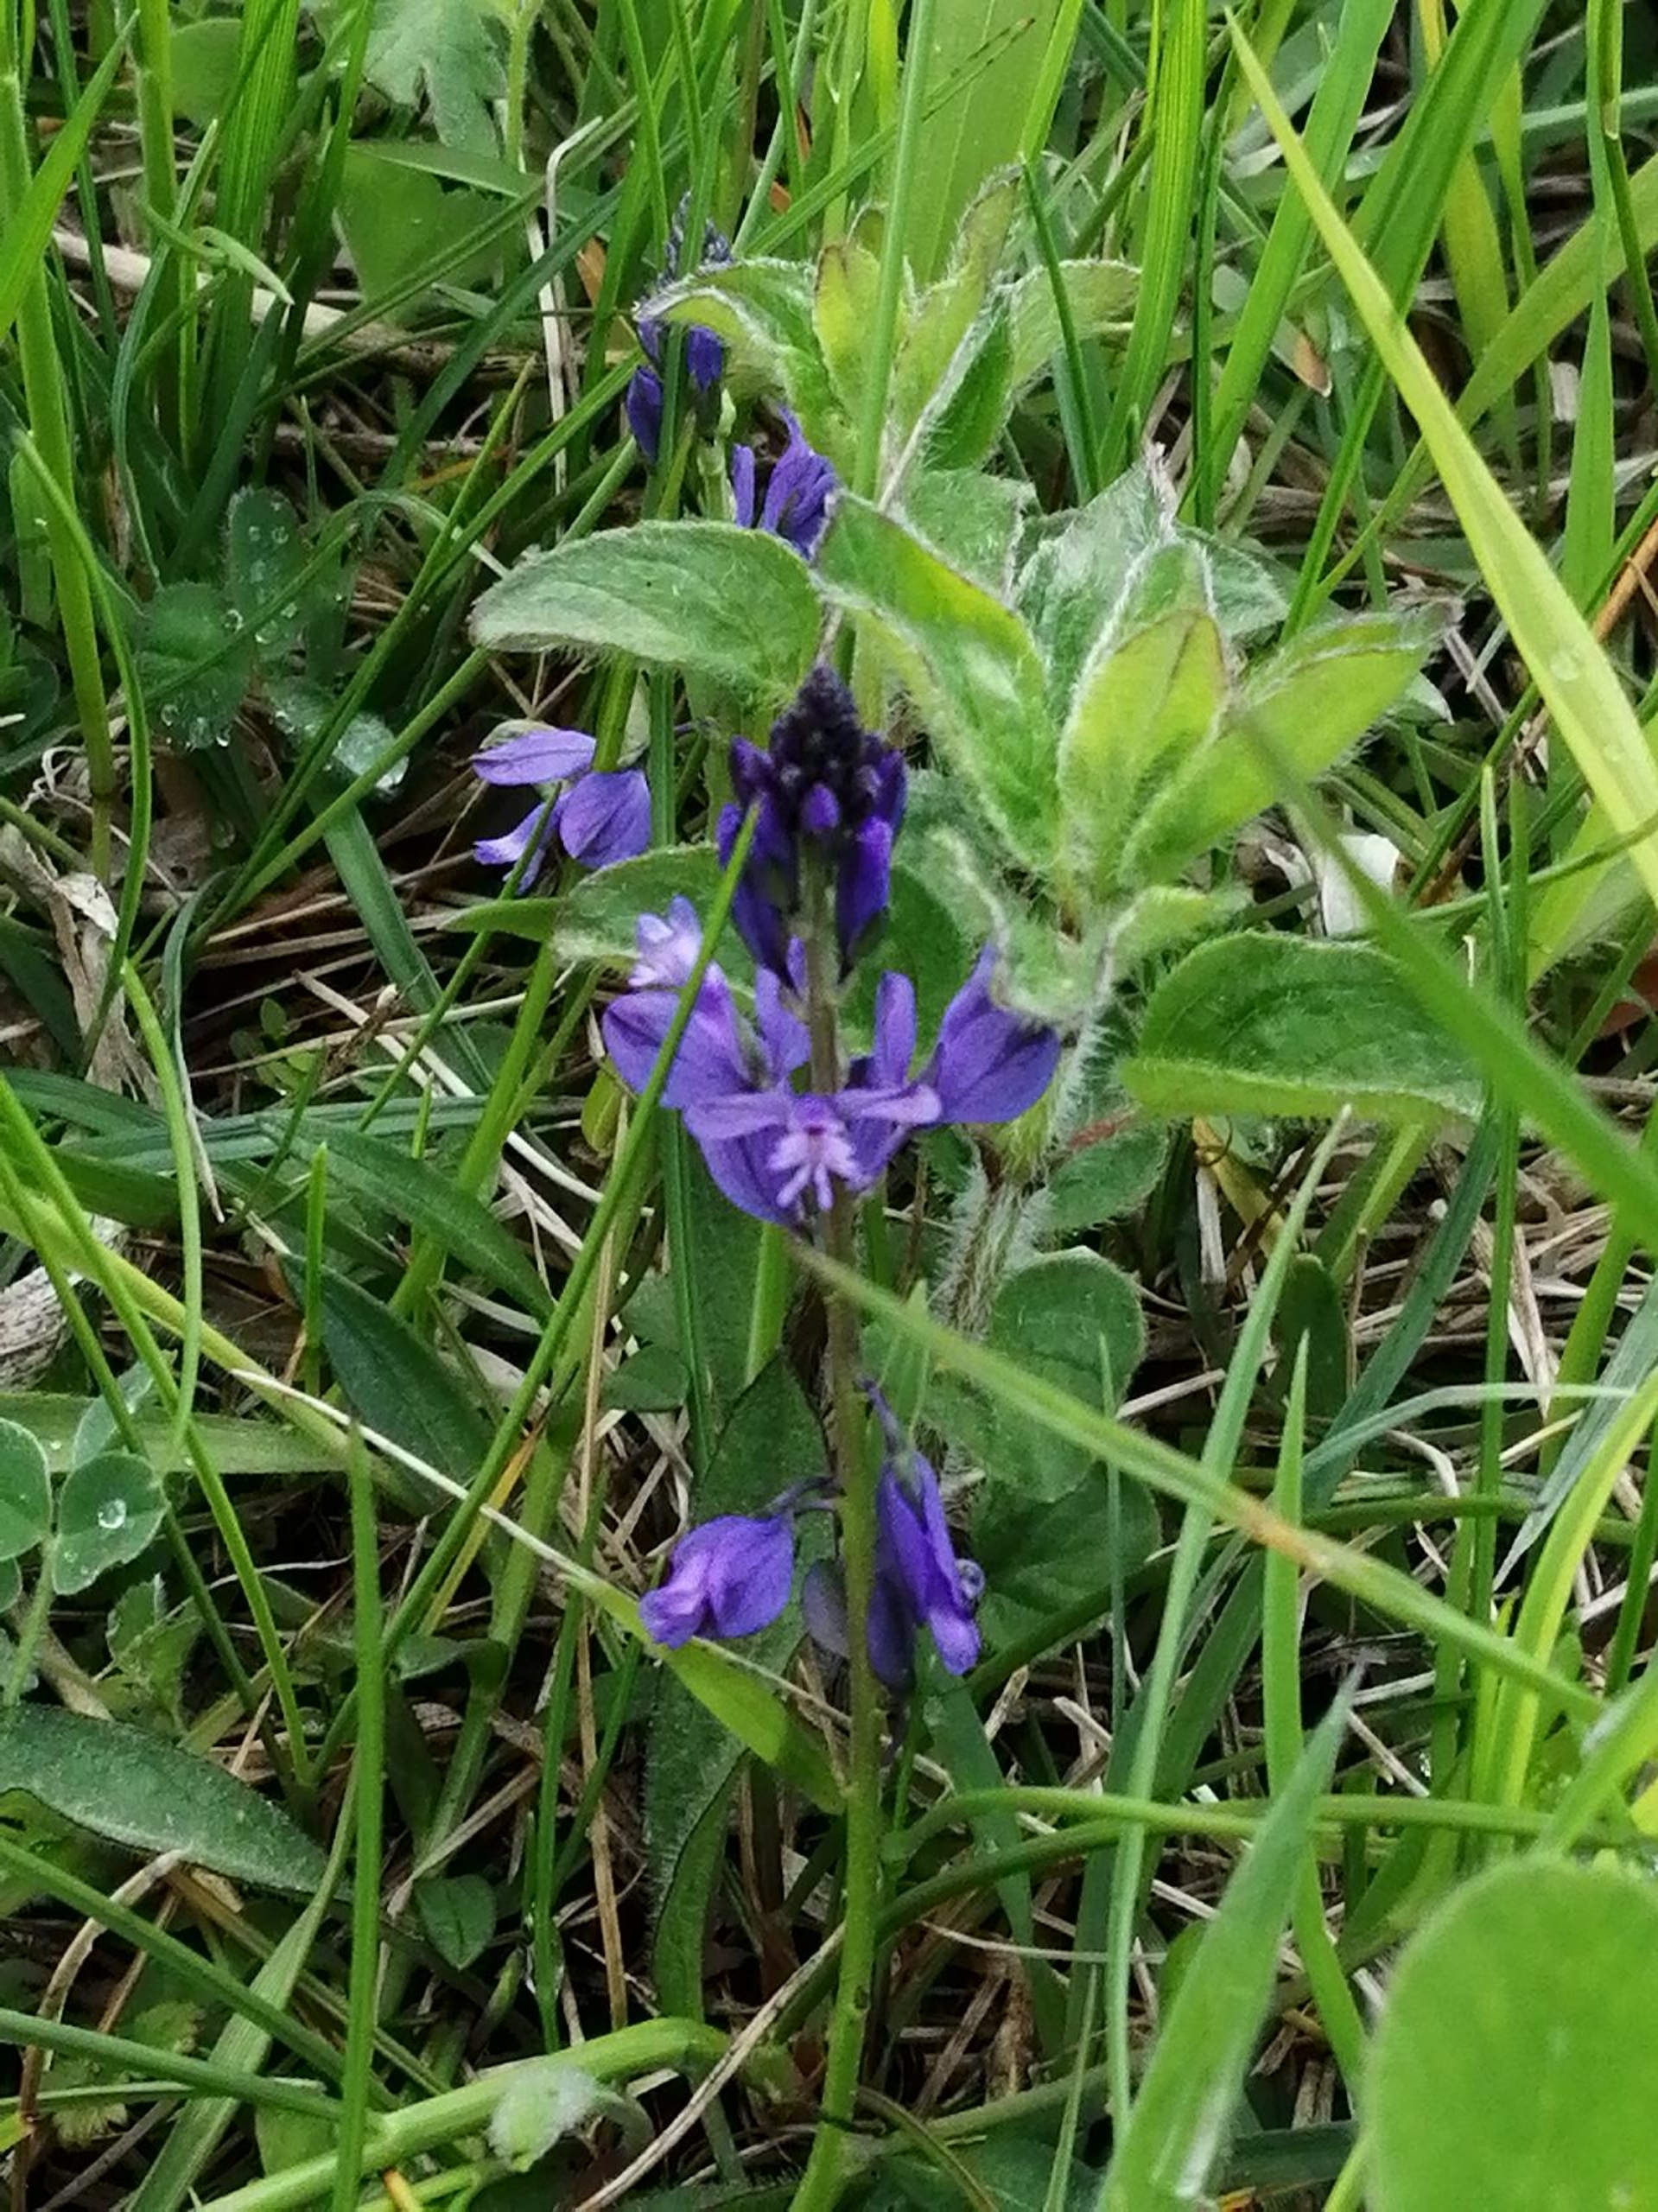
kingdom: Plantae
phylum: Tracheophyta
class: Magnoliopsida
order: Fabales
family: Polygalaceae
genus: Polygala
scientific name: Polygala vulgaris
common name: Almindelig mælkeurt
